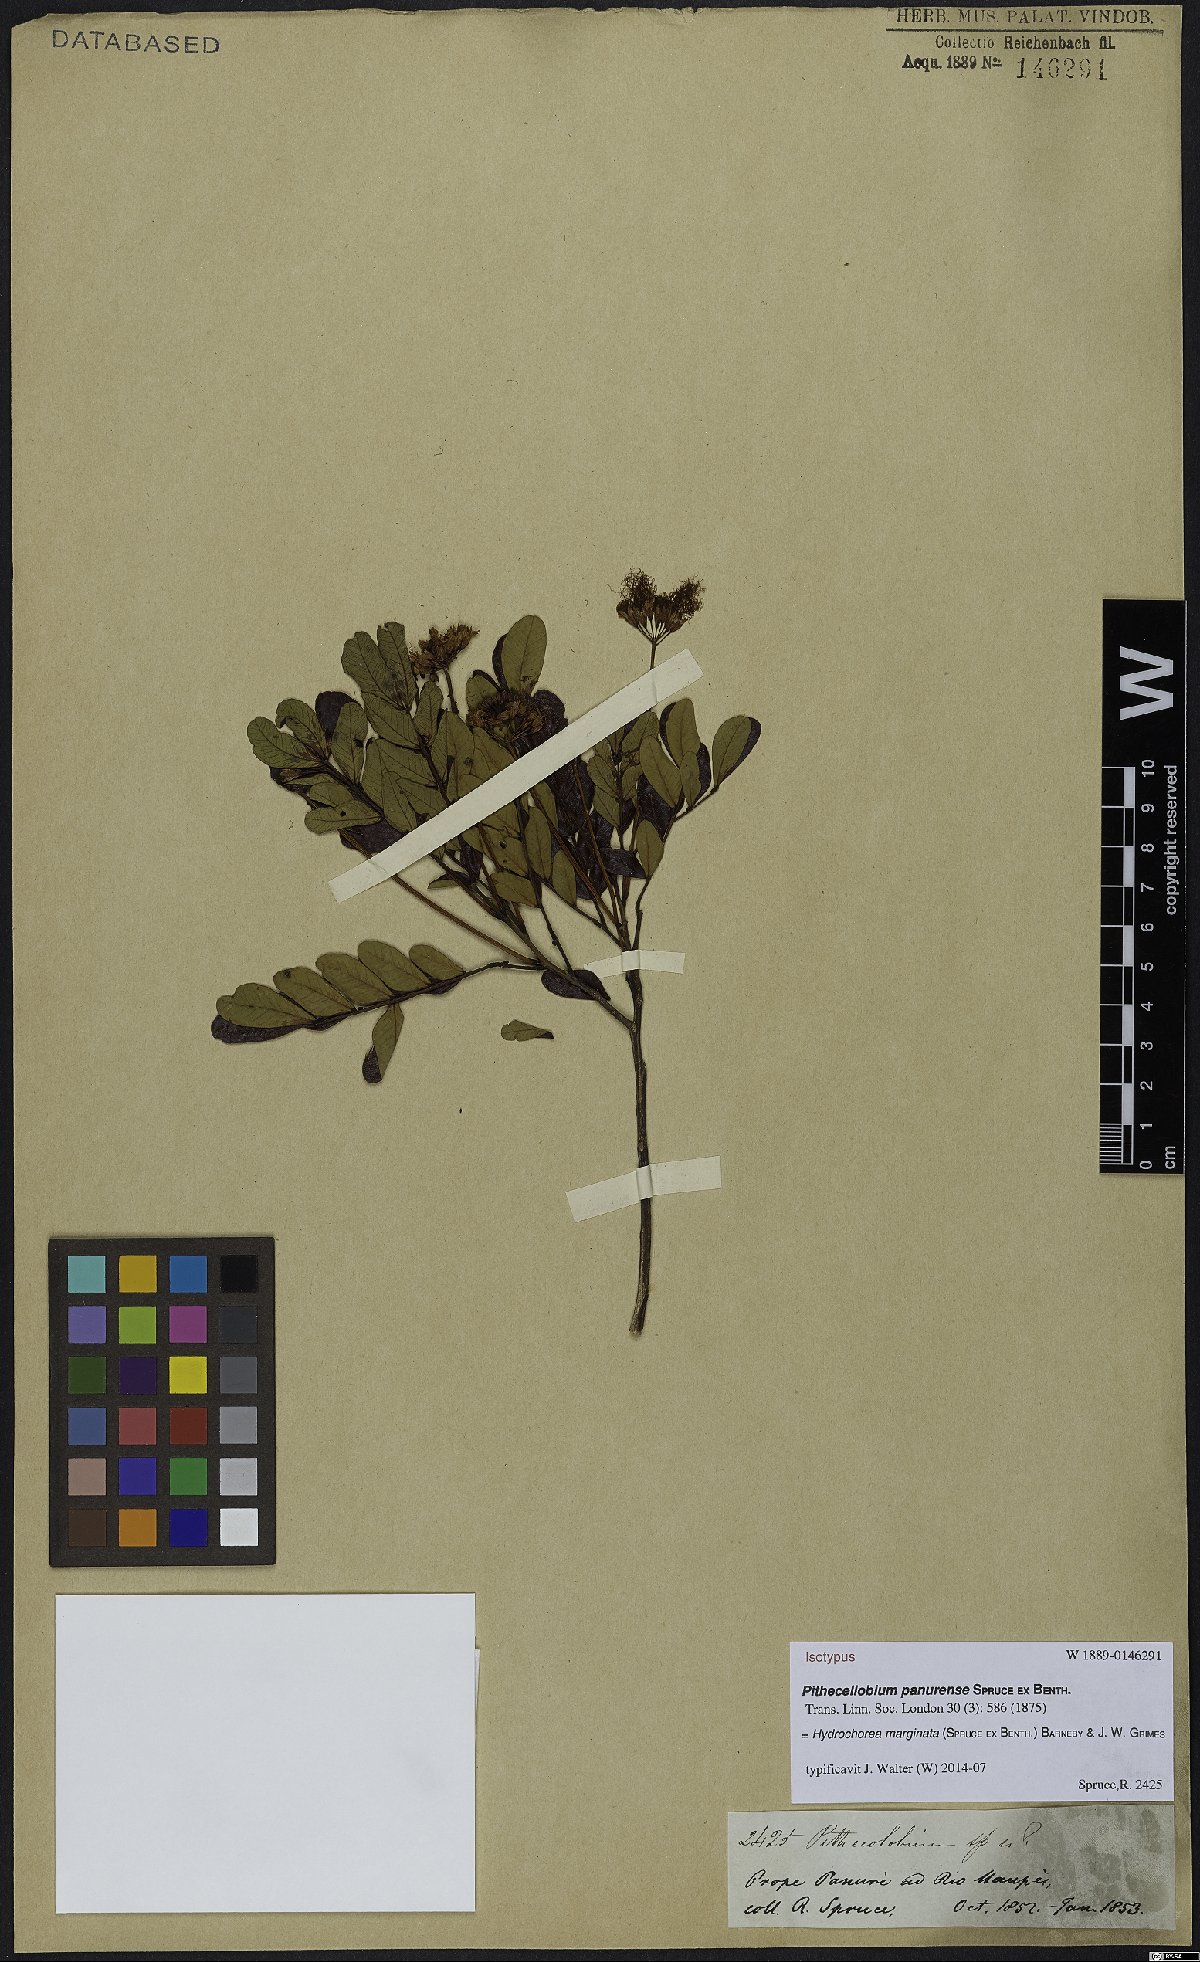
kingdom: Plantae
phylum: Tracheophyta
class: Magnoliopsida
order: Fabales
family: Fabaceae
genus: Hydrochorea
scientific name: Hydrochorea marginata
